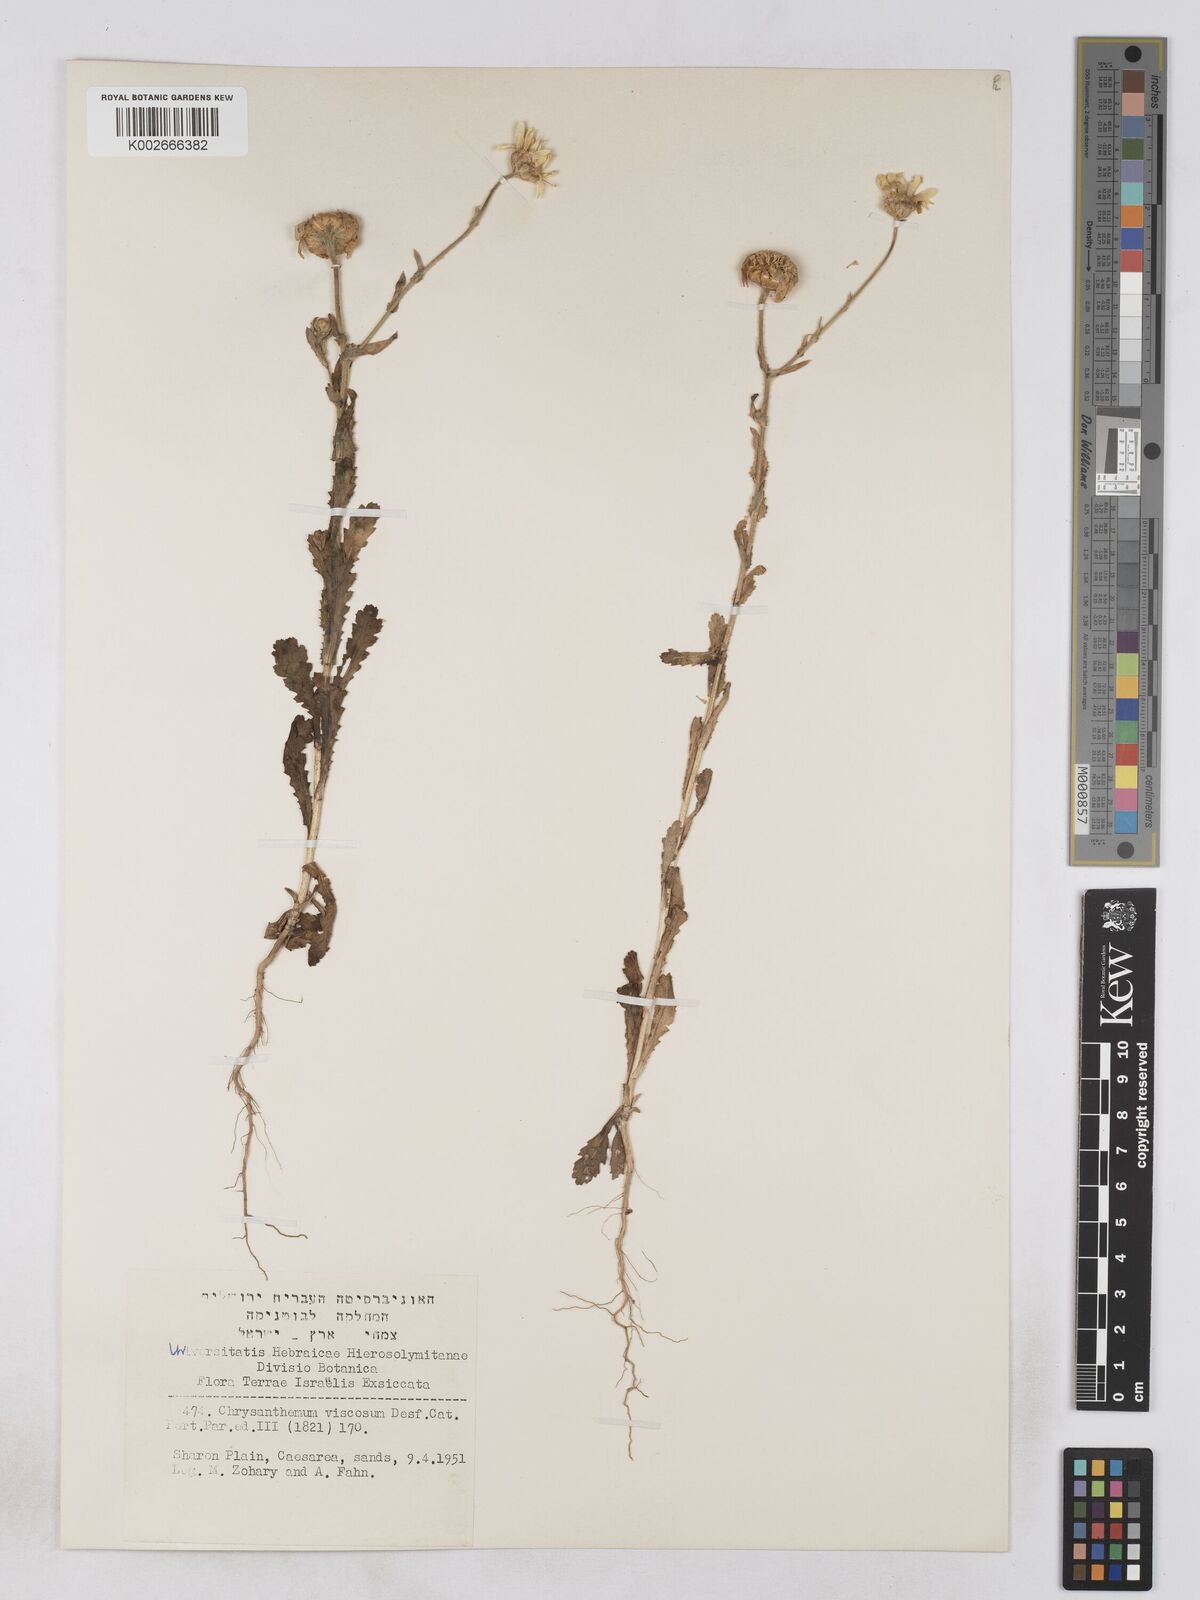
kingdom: Plantae
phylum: Tracheophyta
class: Magnoliopsida
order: Asterales
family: Asteraceae
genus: Heteranthemis
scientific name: Heteranthemis
